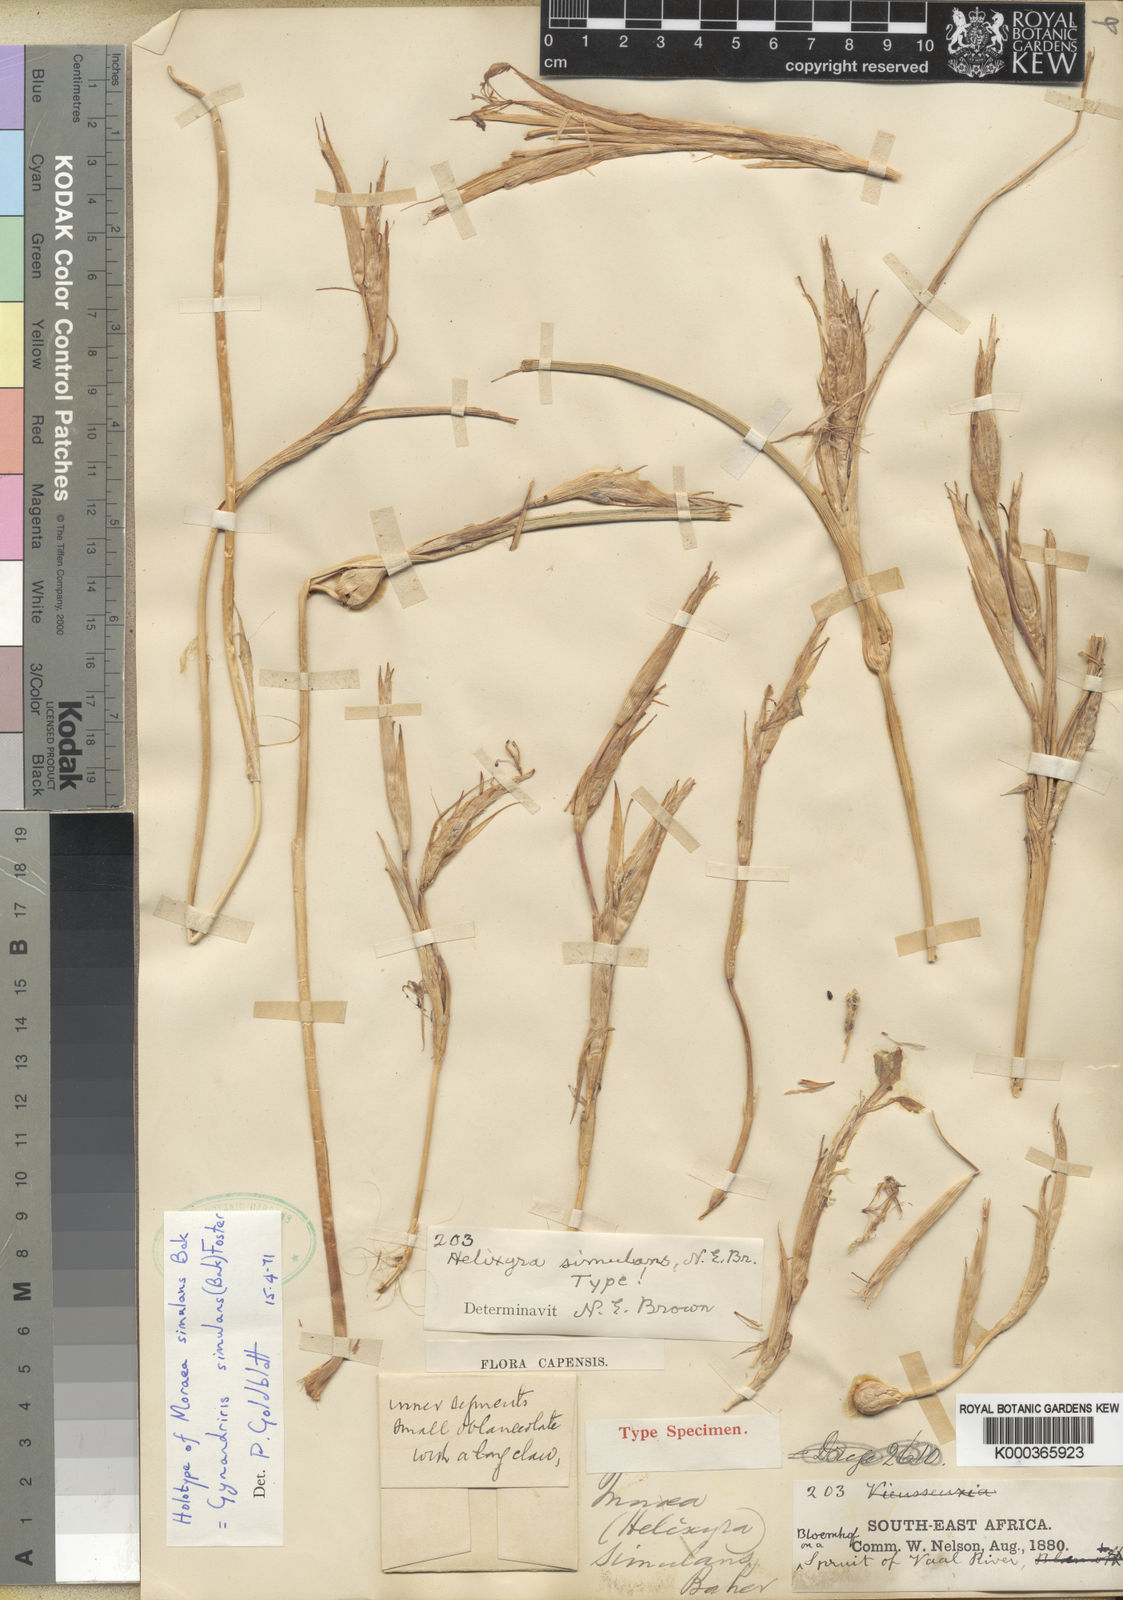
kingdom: Plantae
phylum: Tracheophyta
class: Liliopsida
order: Asparagales
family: Iridaceae
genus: Moraea
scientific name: Moraea simulans
